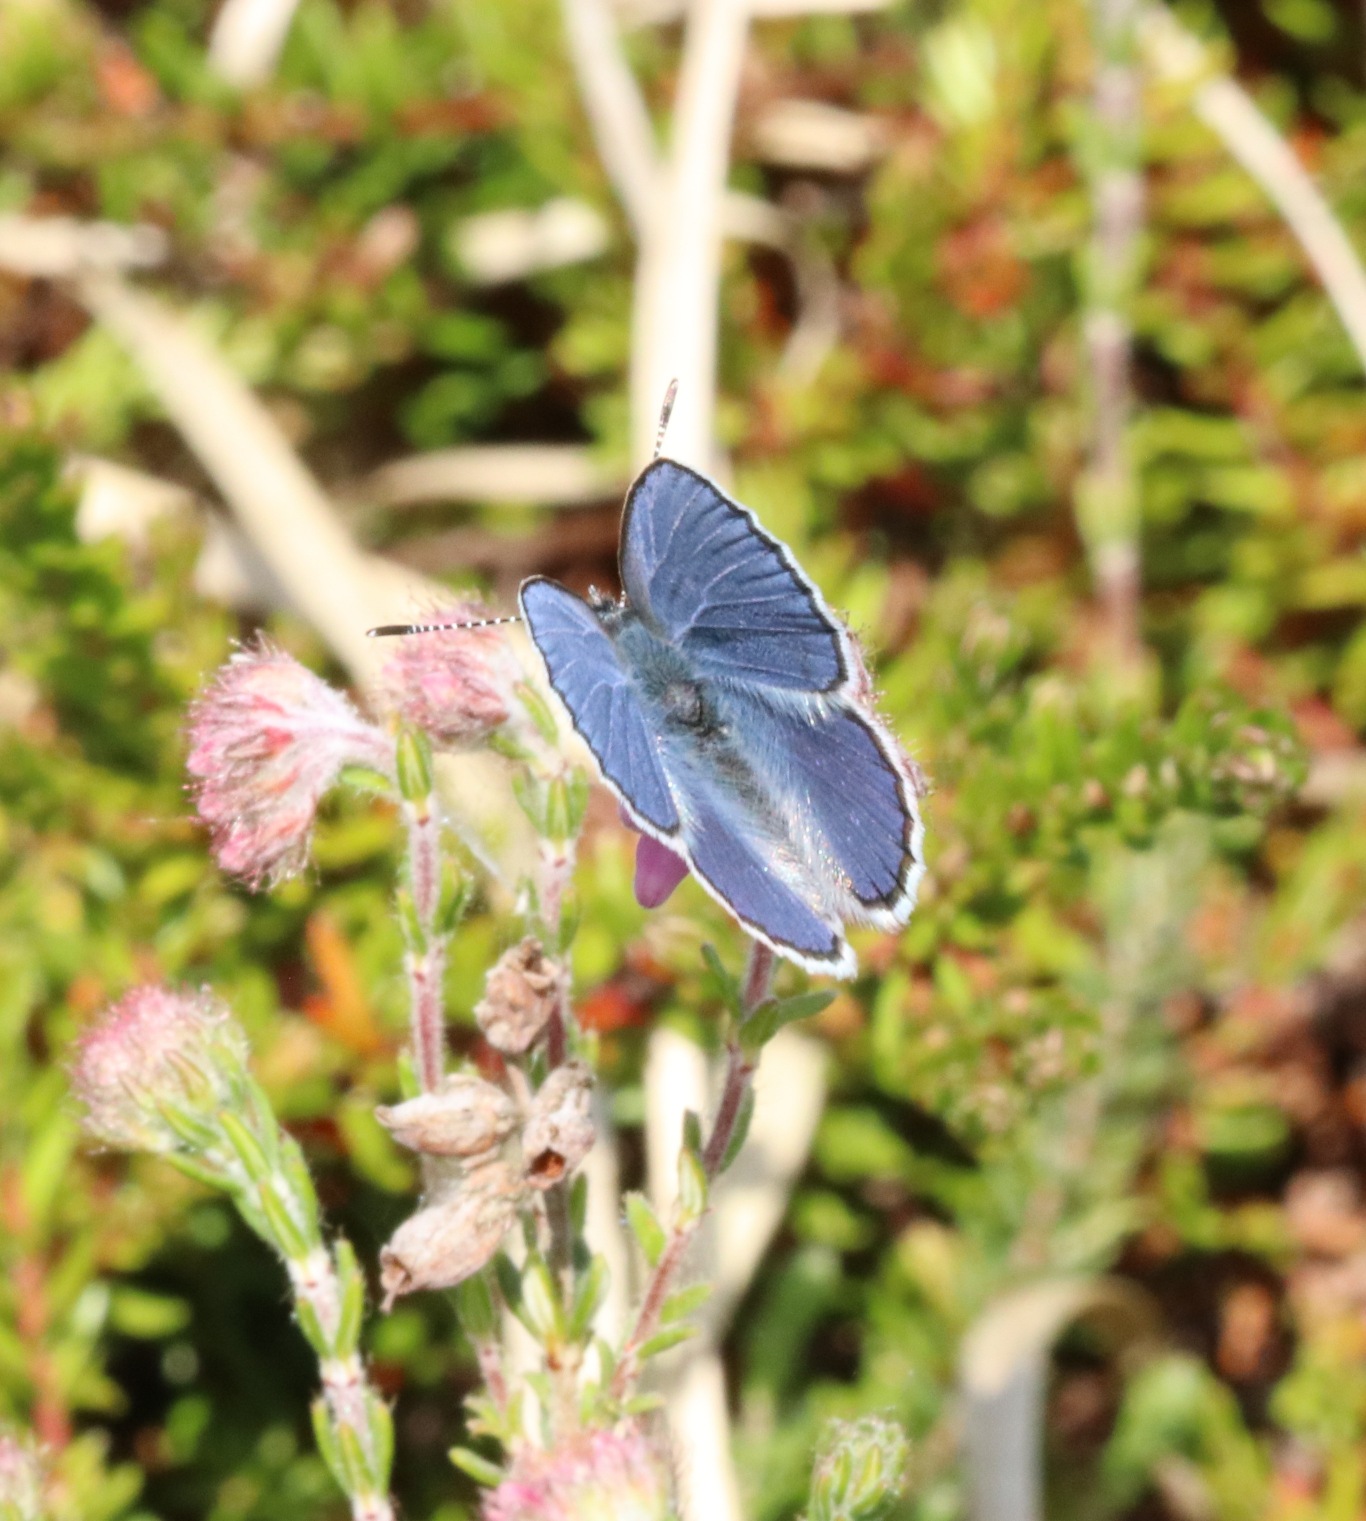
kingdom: Animalia
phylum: Arthropoda
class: Insecta
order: Lepidoptera
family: Lycaenidae
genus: Vacciniina
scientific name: Vacciniina optilete
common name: Bølleblåfugl
